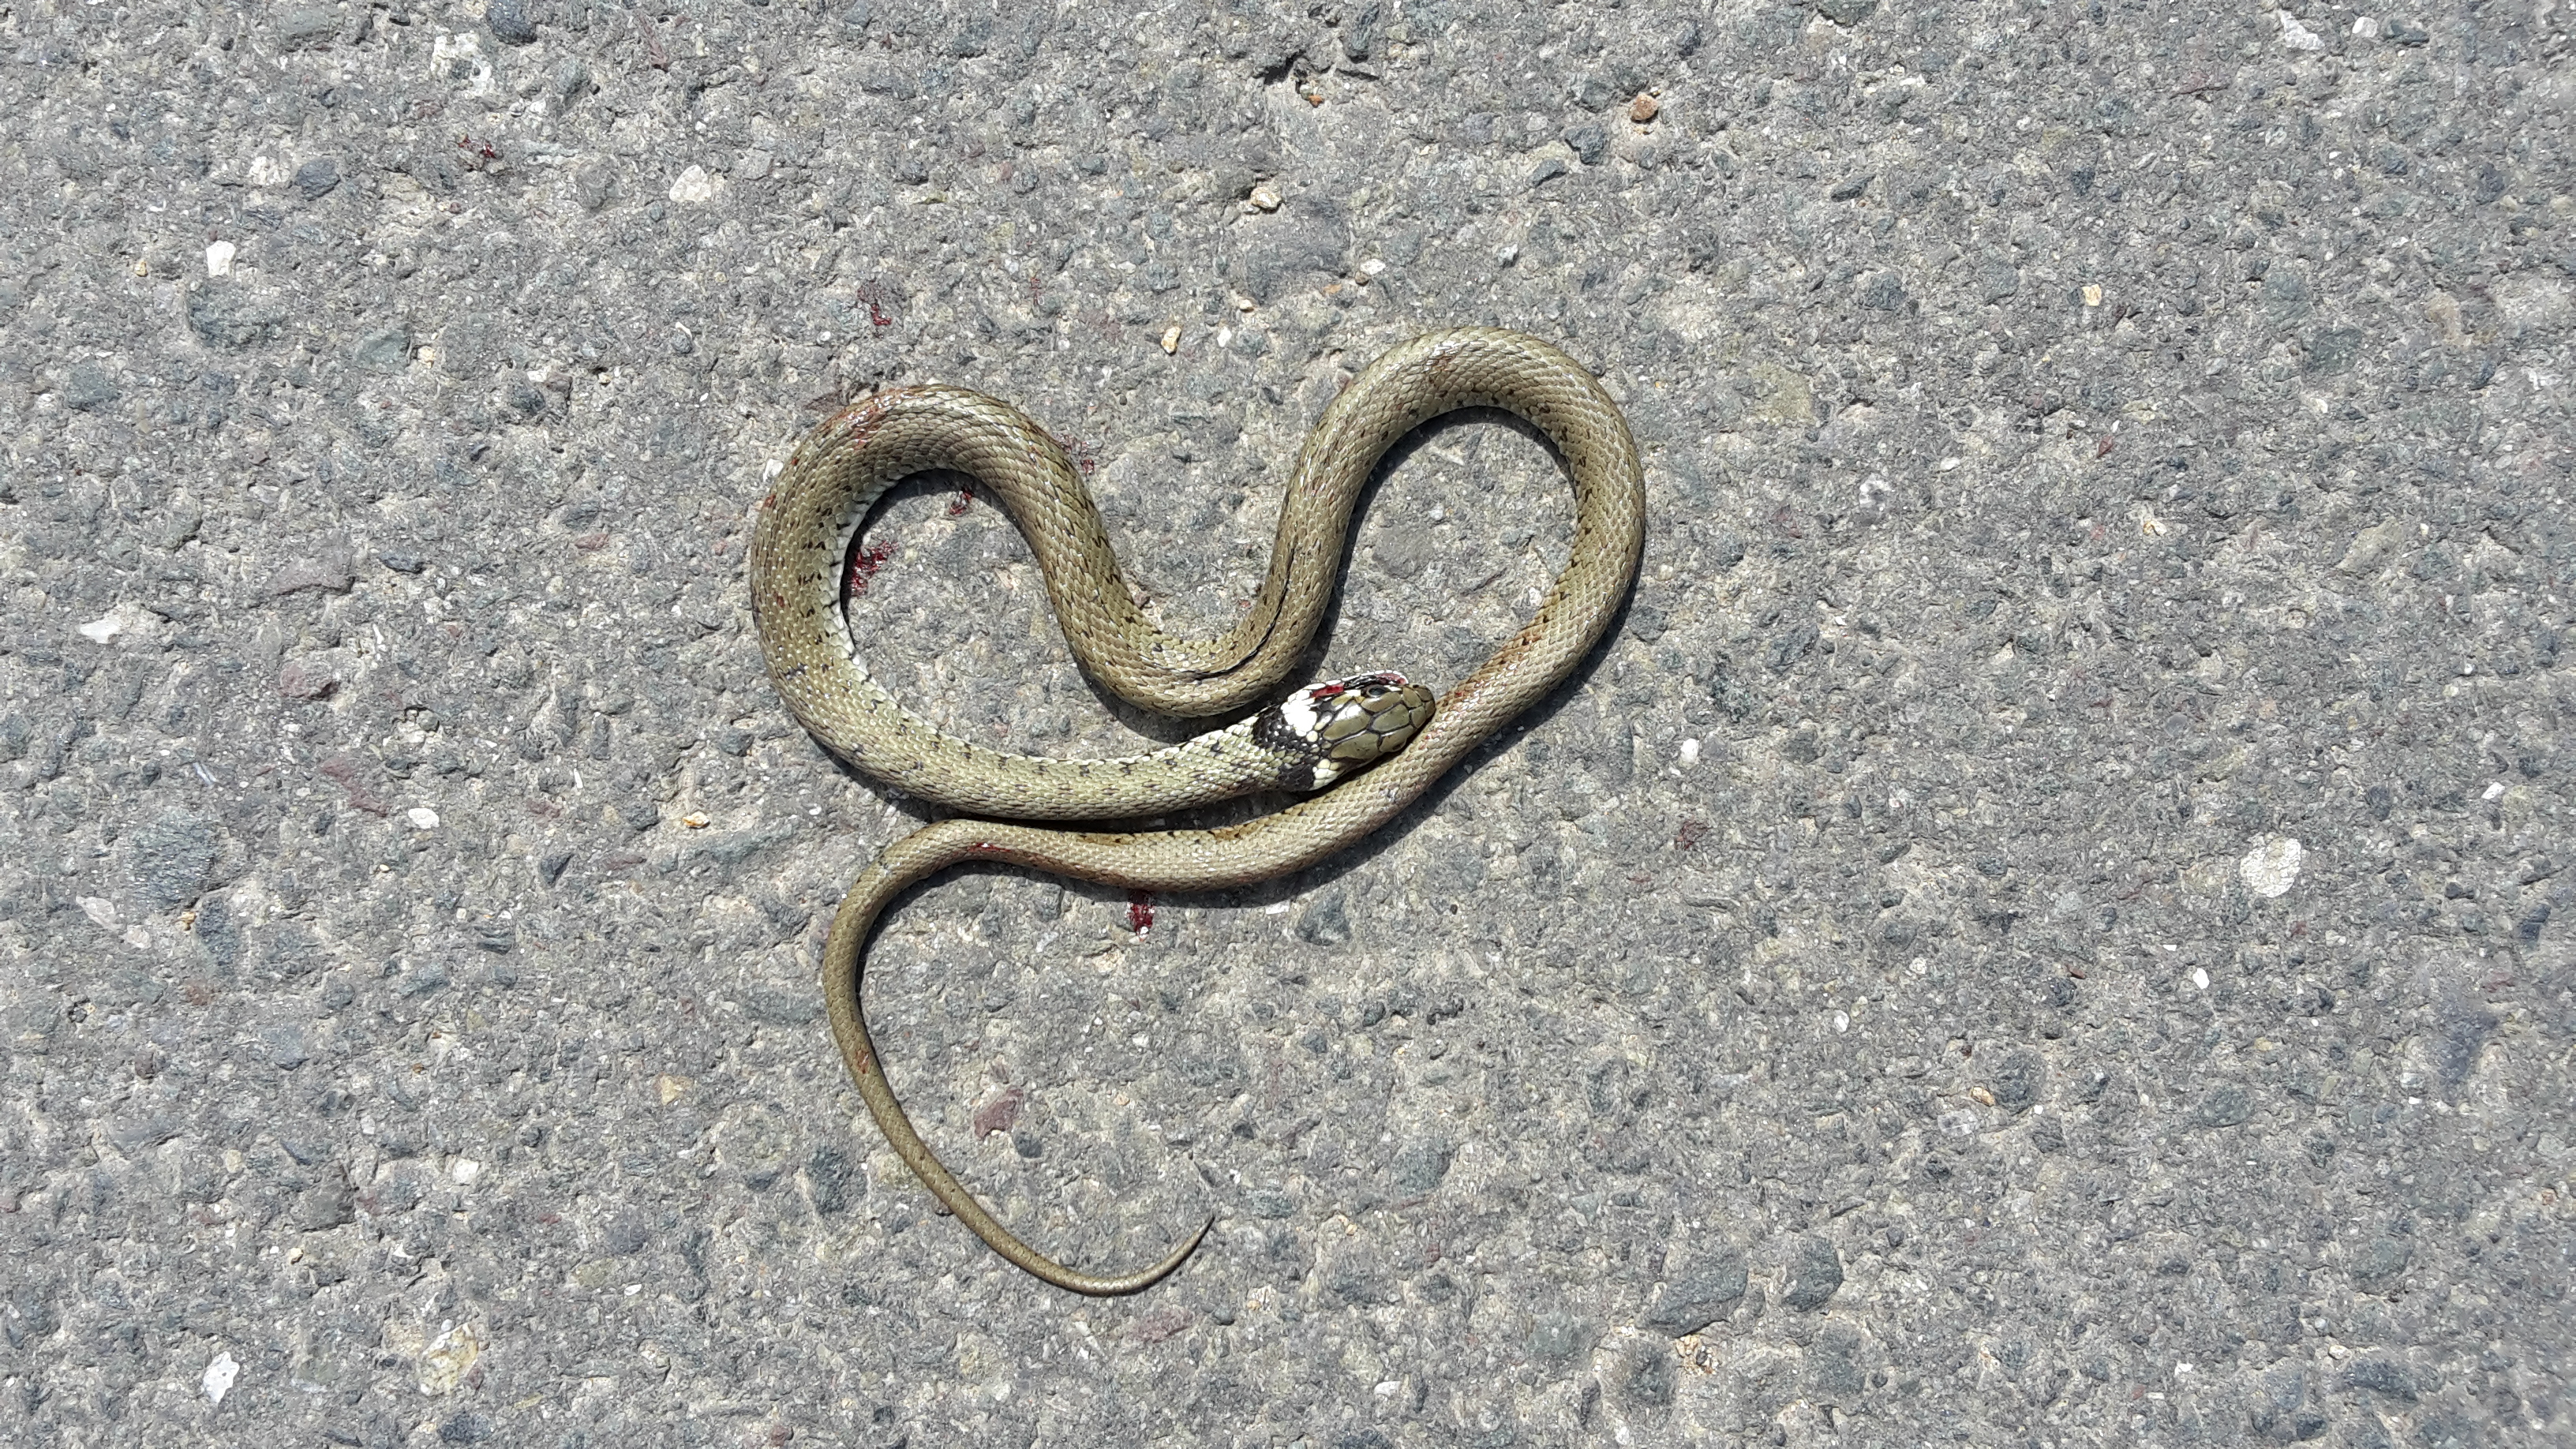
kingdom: Animalia
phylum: Chordata
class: Squamata
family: Colubridae
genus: Natrix
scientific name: Natrix natrix
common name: Grass snake
